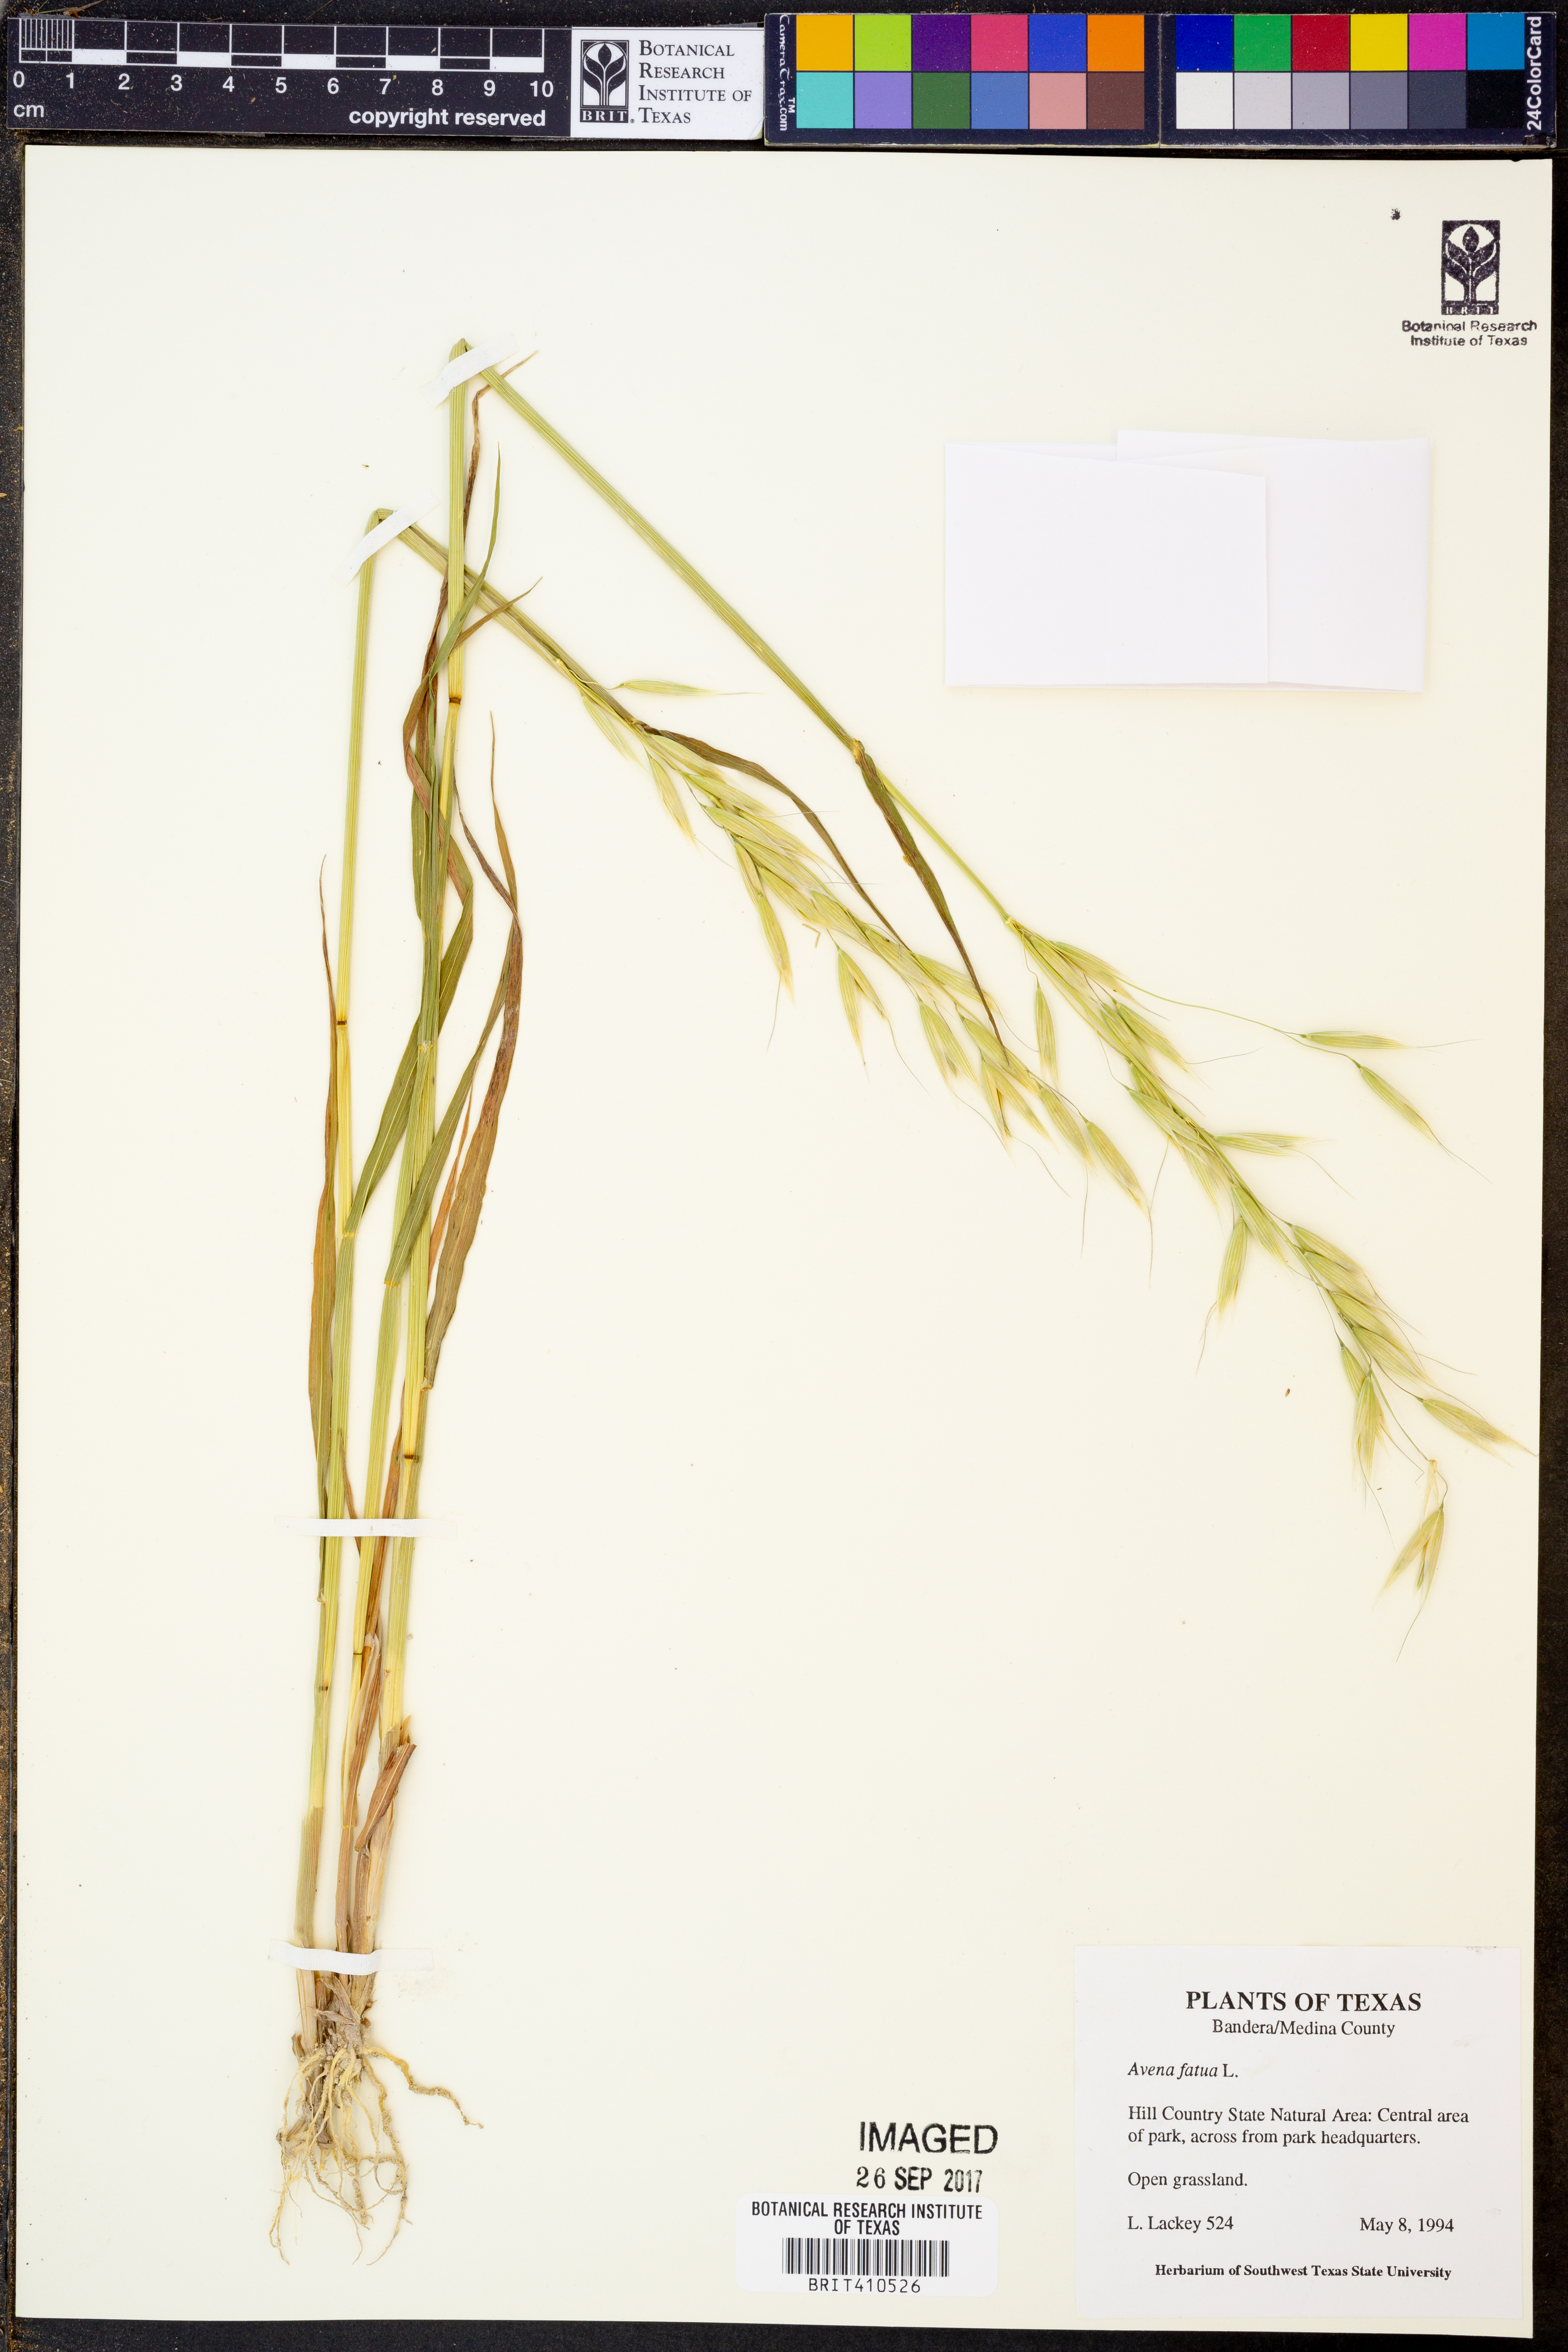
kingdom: Plantae
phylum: Tracheophyta
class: Liliopsida
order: Poales
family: Poaceae
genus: Avena
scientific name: Avena fatua
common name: Wild oat
